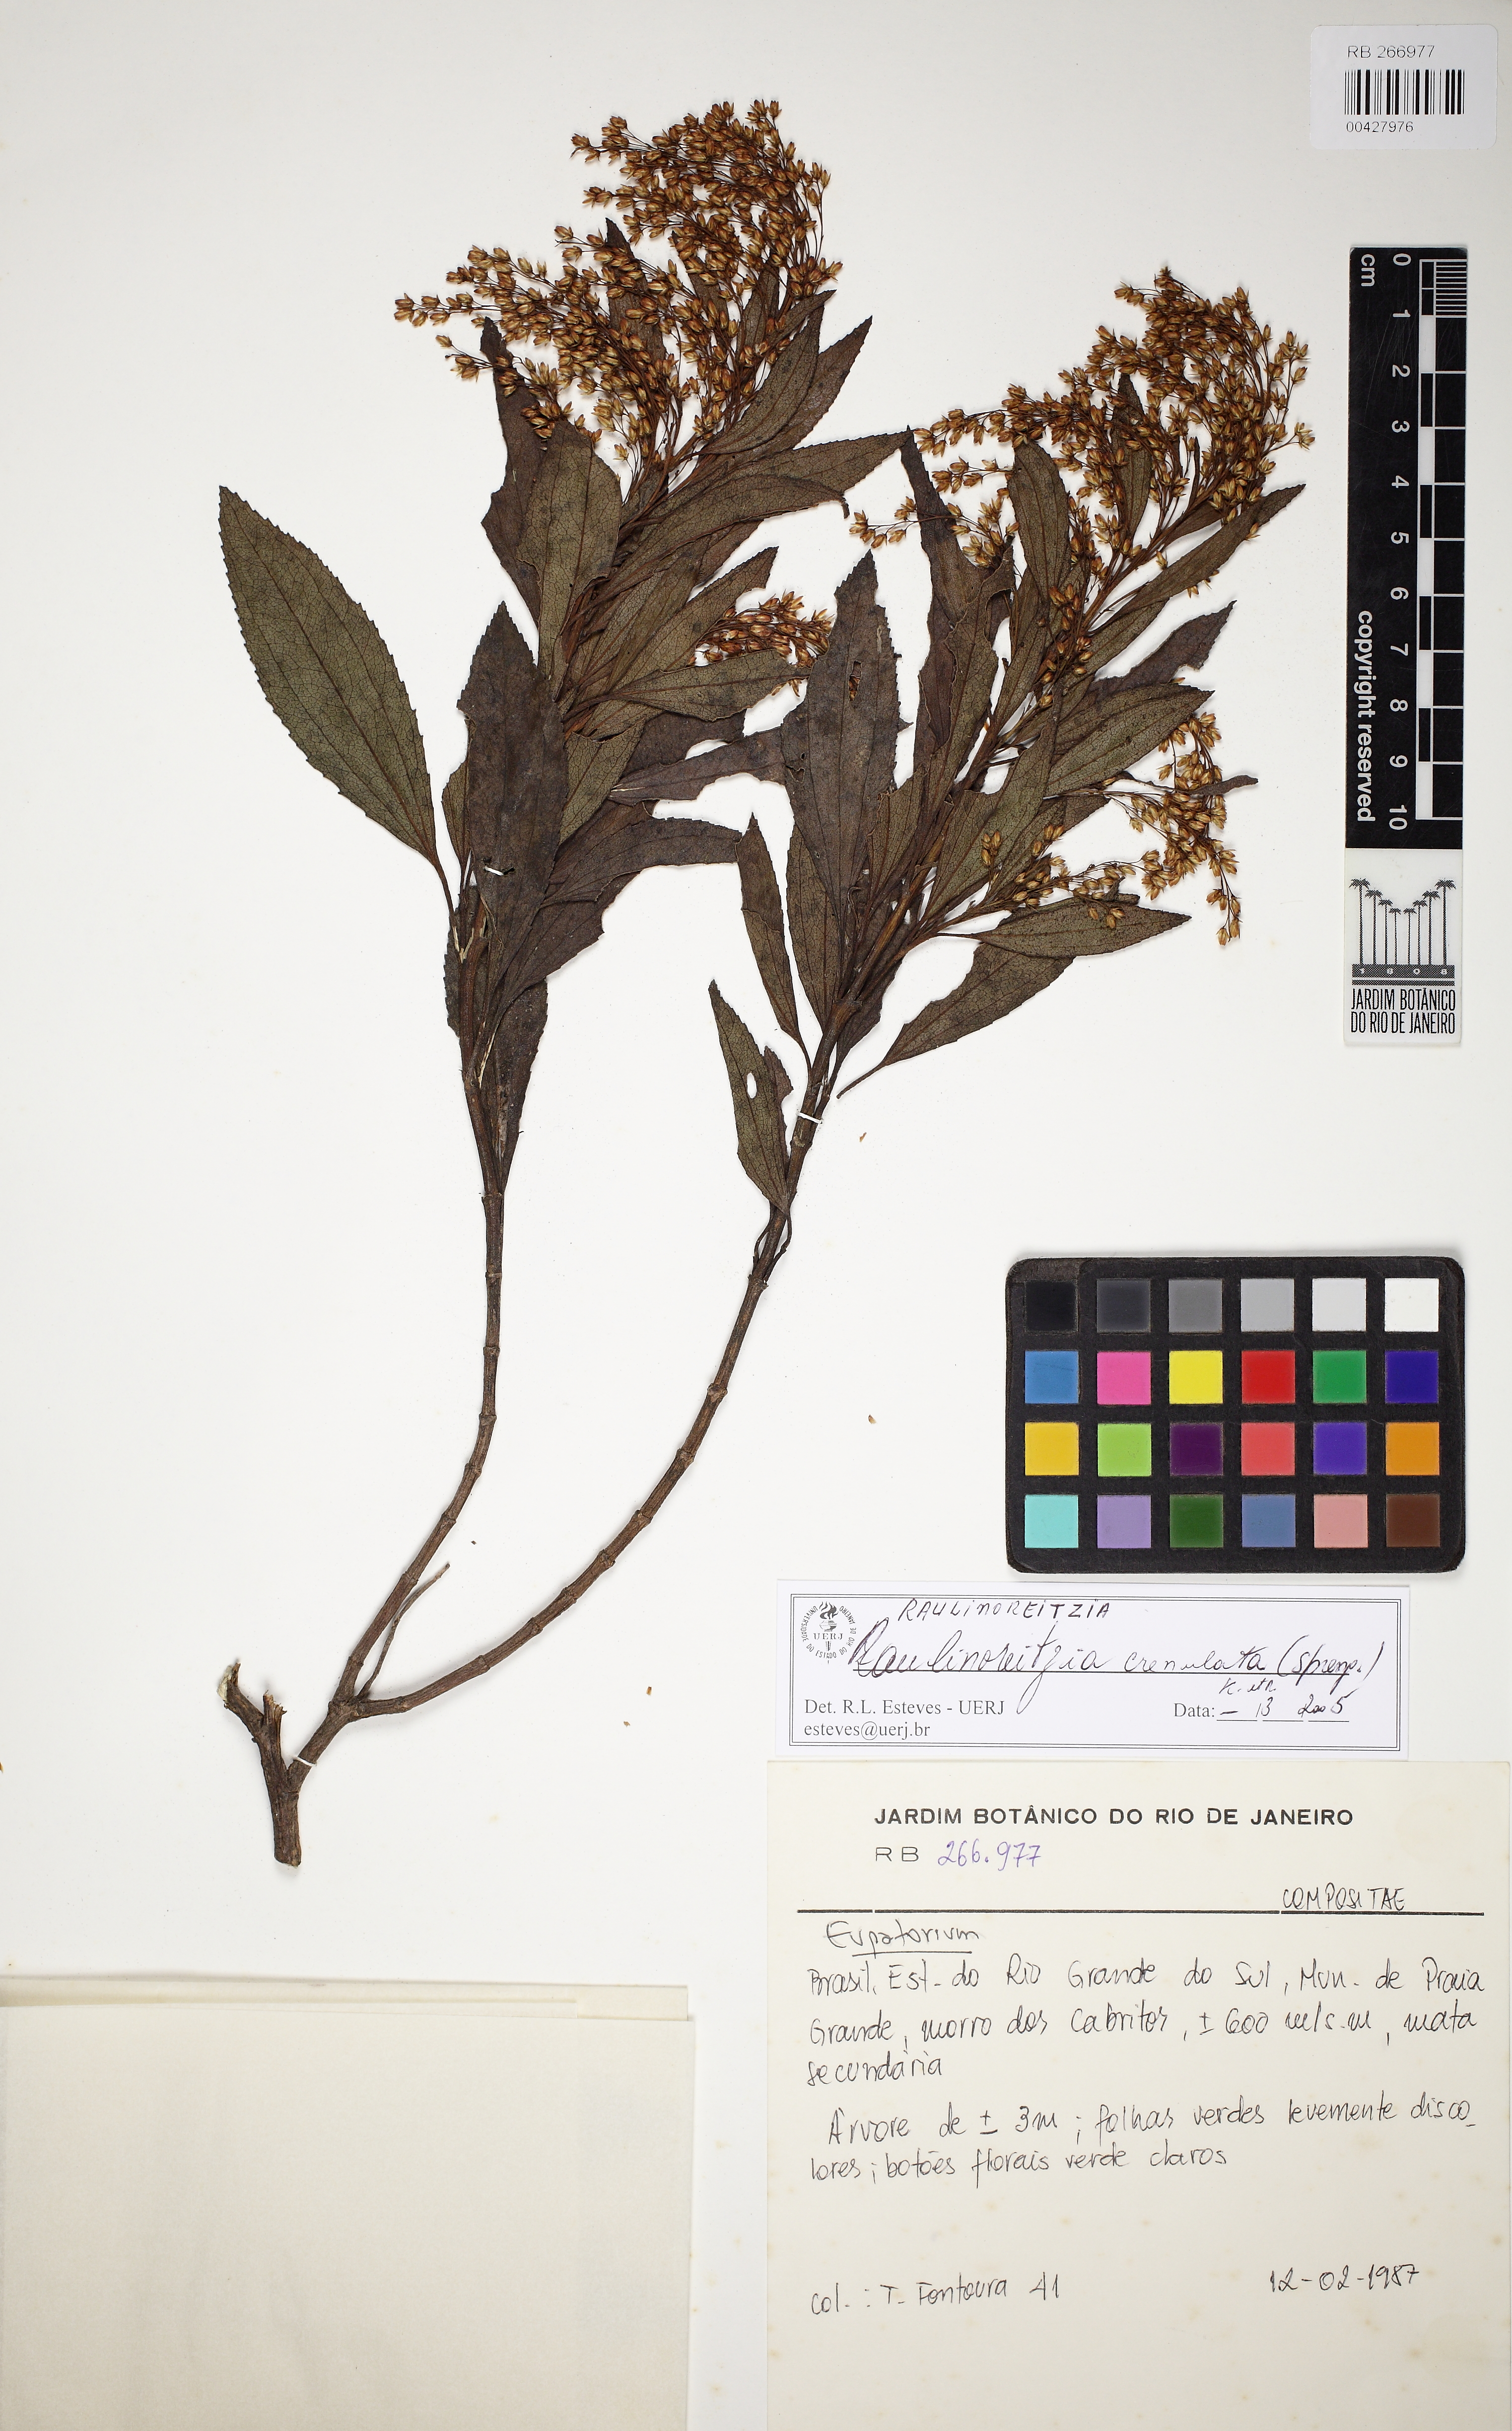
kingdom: Plantae
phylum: Tracheophyta
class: Magnoliopsida
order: Asterales
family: Asteraceae
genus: Raulinoreitzia
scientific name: Raulinoreitzia crenulata
